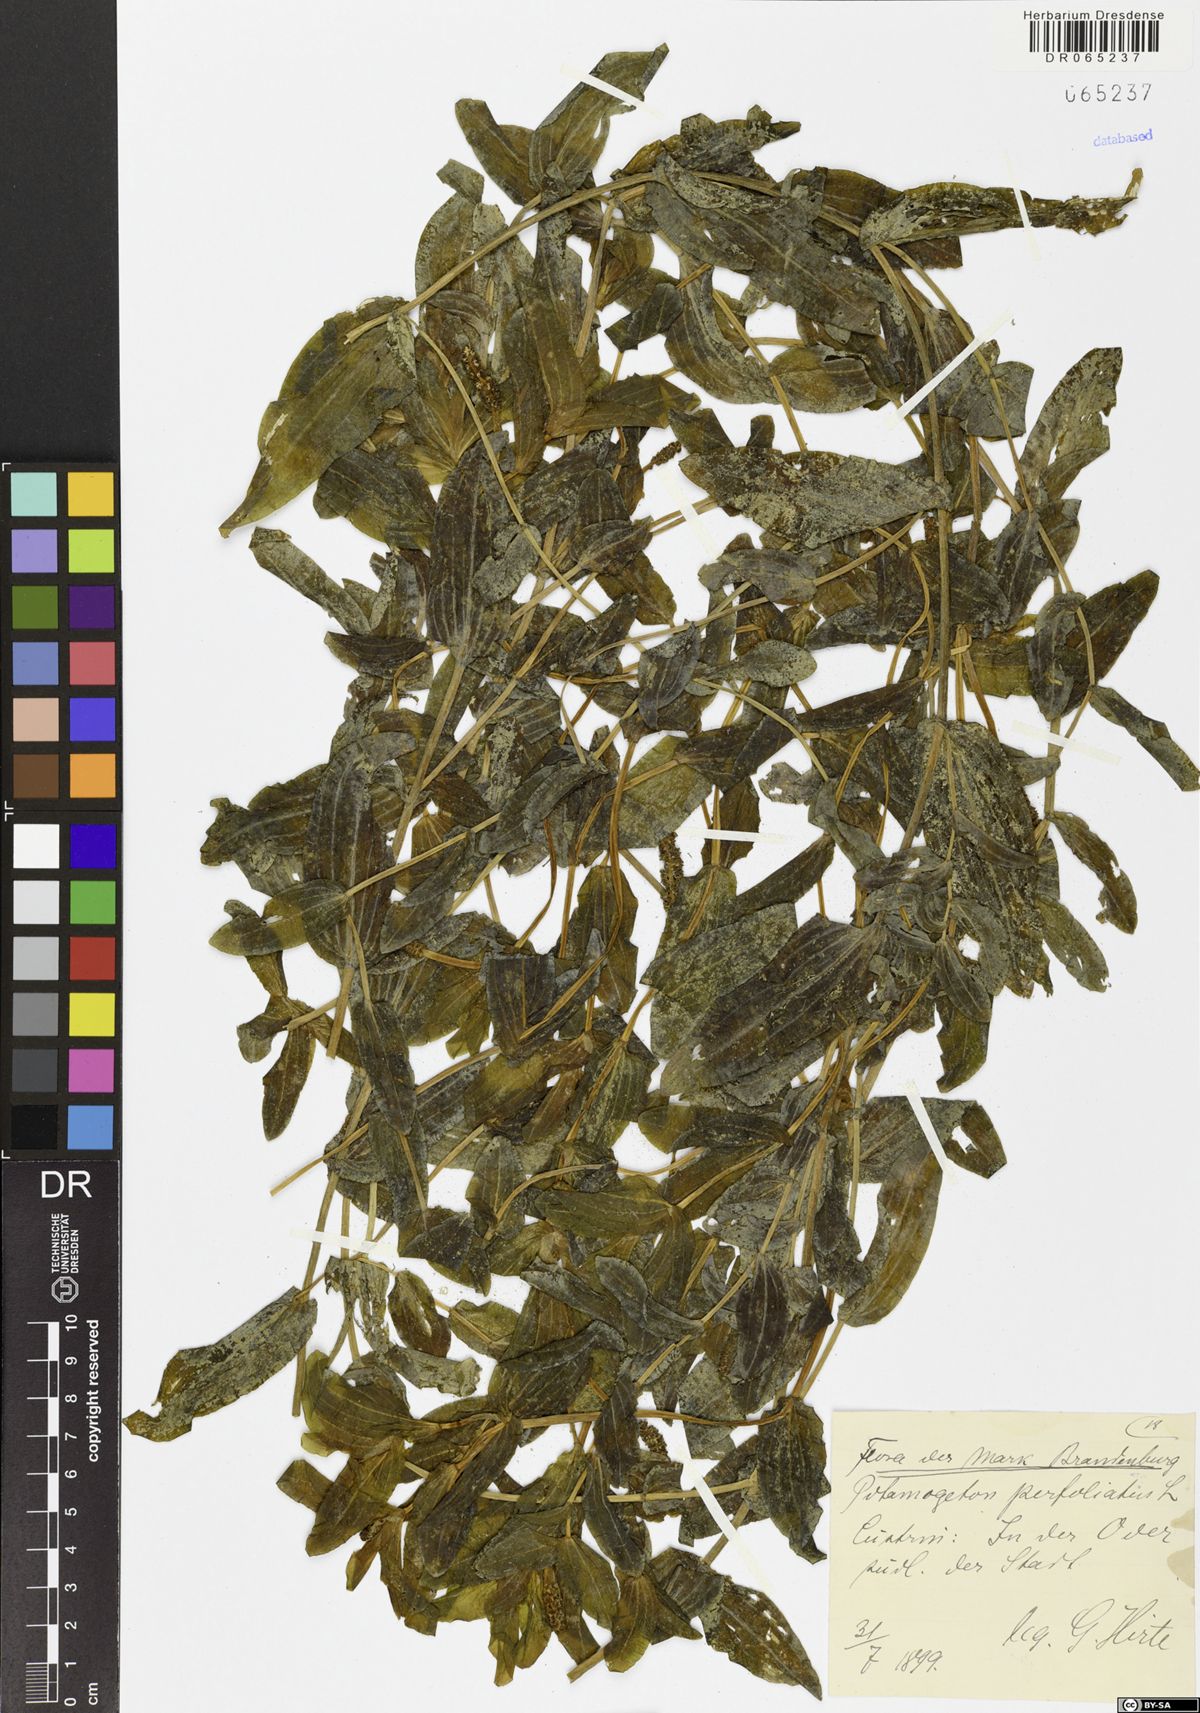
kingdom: Plantae
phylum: Tracheophyta
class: Liliopsida
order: Alismatales
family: Potamogetonaceae
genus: Potamogeton
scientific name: Potamogeton perfoliatus
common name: Perfoliate pondweed
